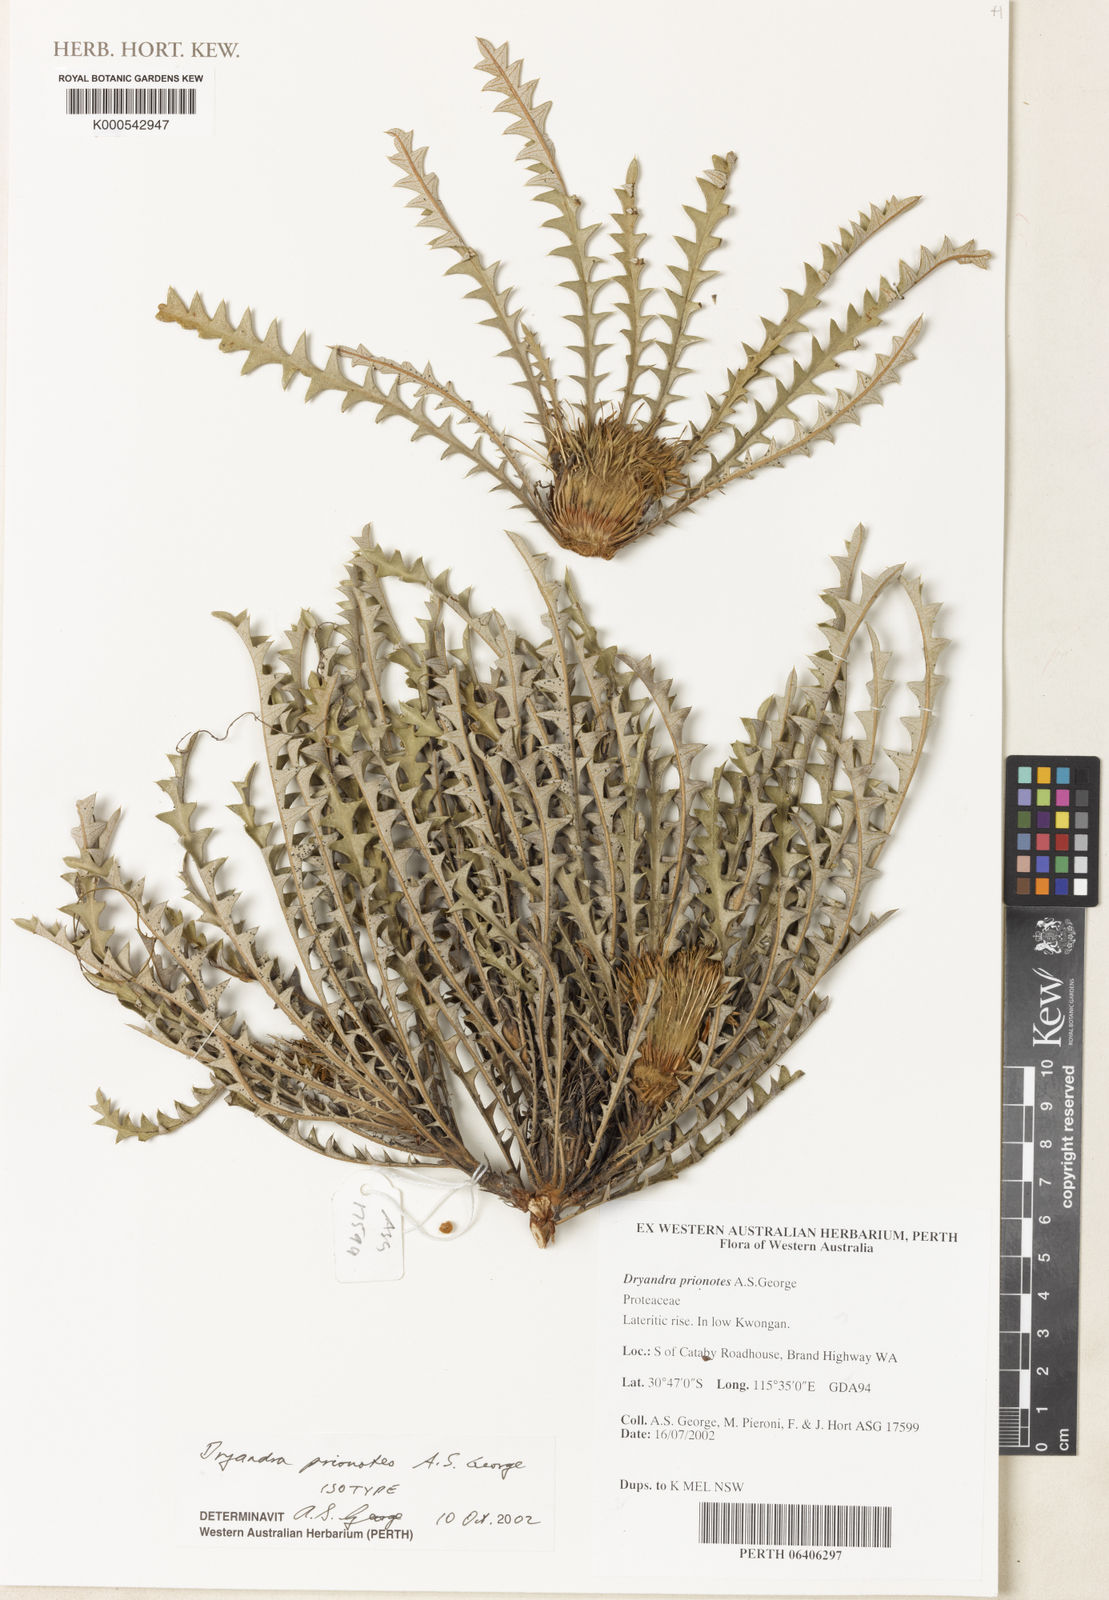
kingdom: Plantae
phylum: Tracheophyta
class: Magnoliopsida
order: Proteales
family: Proteaceae
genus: Banksia
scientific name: Banksia prionophylla
